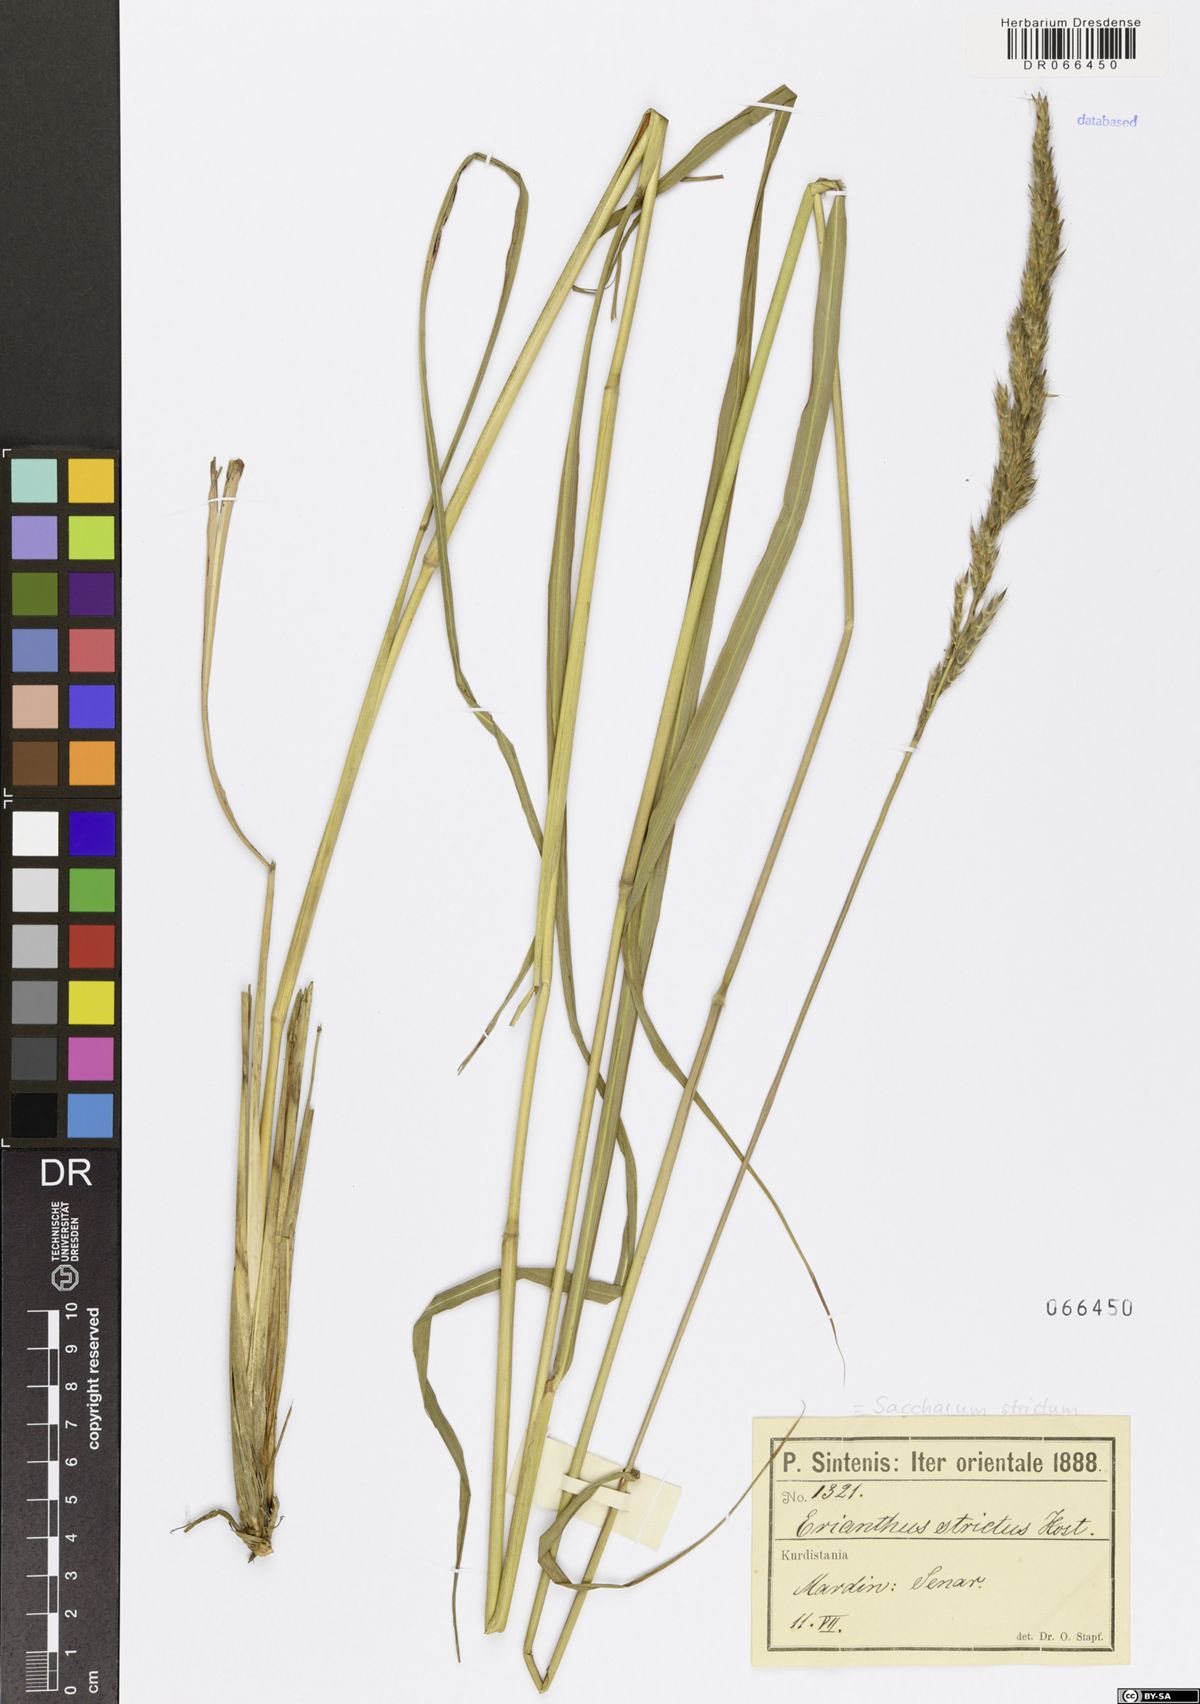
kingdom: Plantae
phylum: Tracheophyta
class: Liliopsida
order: Poales
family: Poaceae
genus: Tripidium
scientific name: Tripidium strictum
